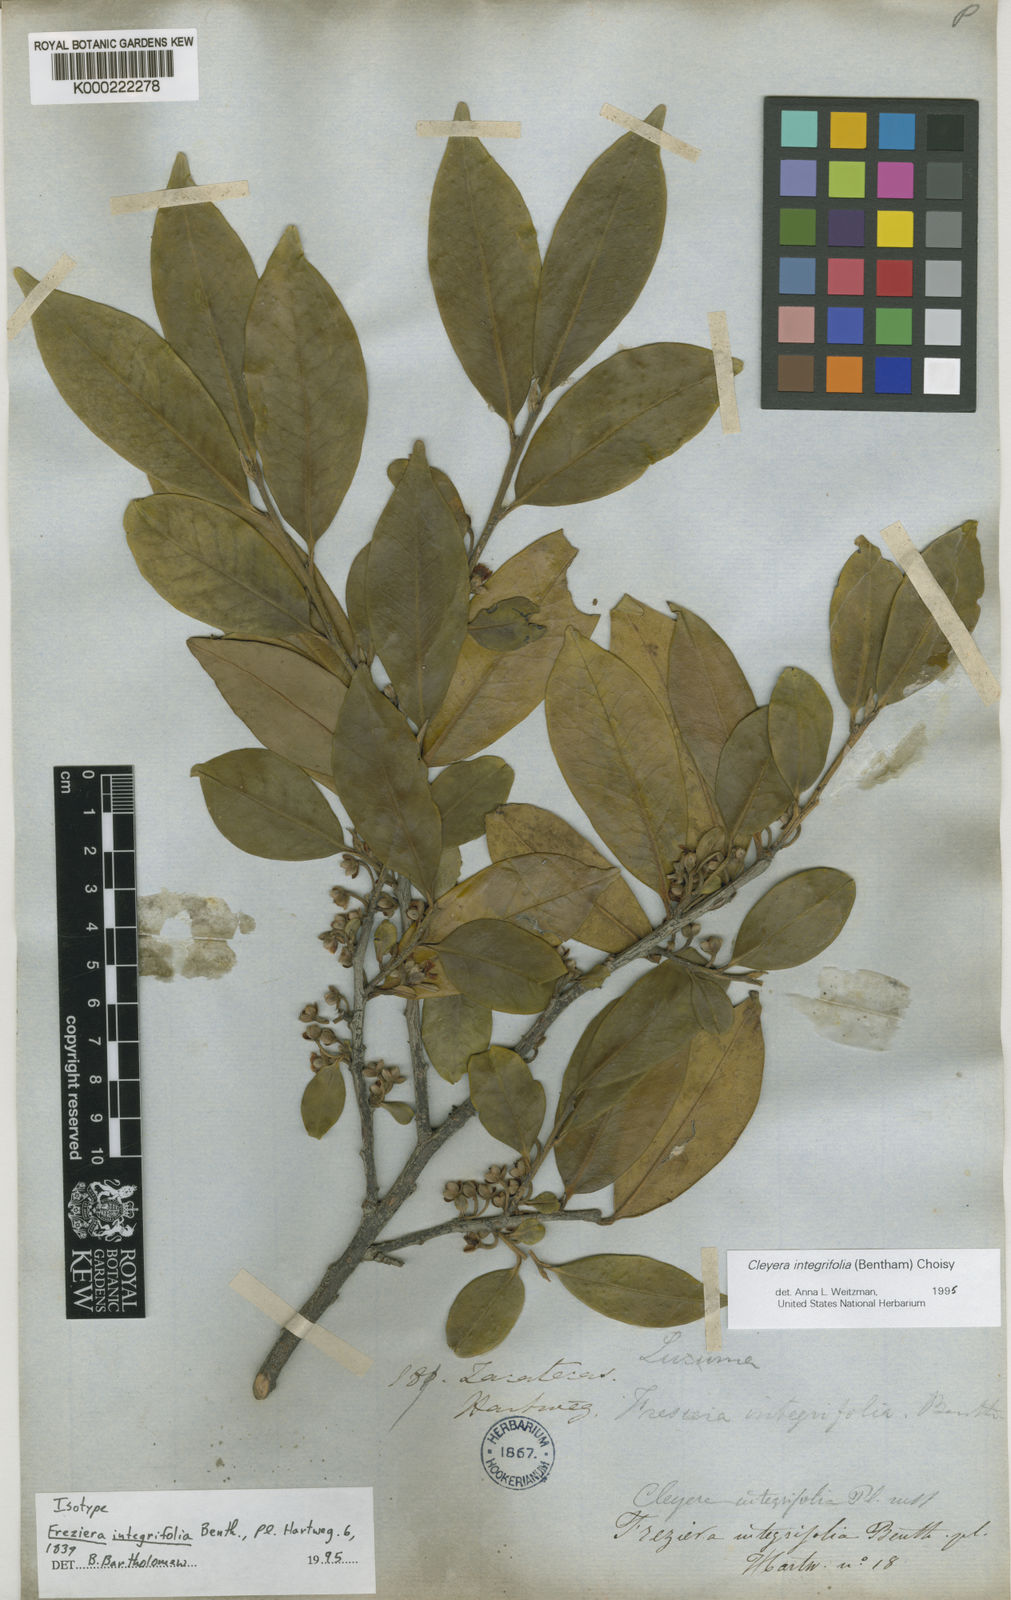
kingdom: Plantae
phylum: Tracheophyta
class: Magnoliopsida
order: Ericales
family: Pentaphylacaceae
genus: Cleyera
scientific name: Cleyera integrifolia
